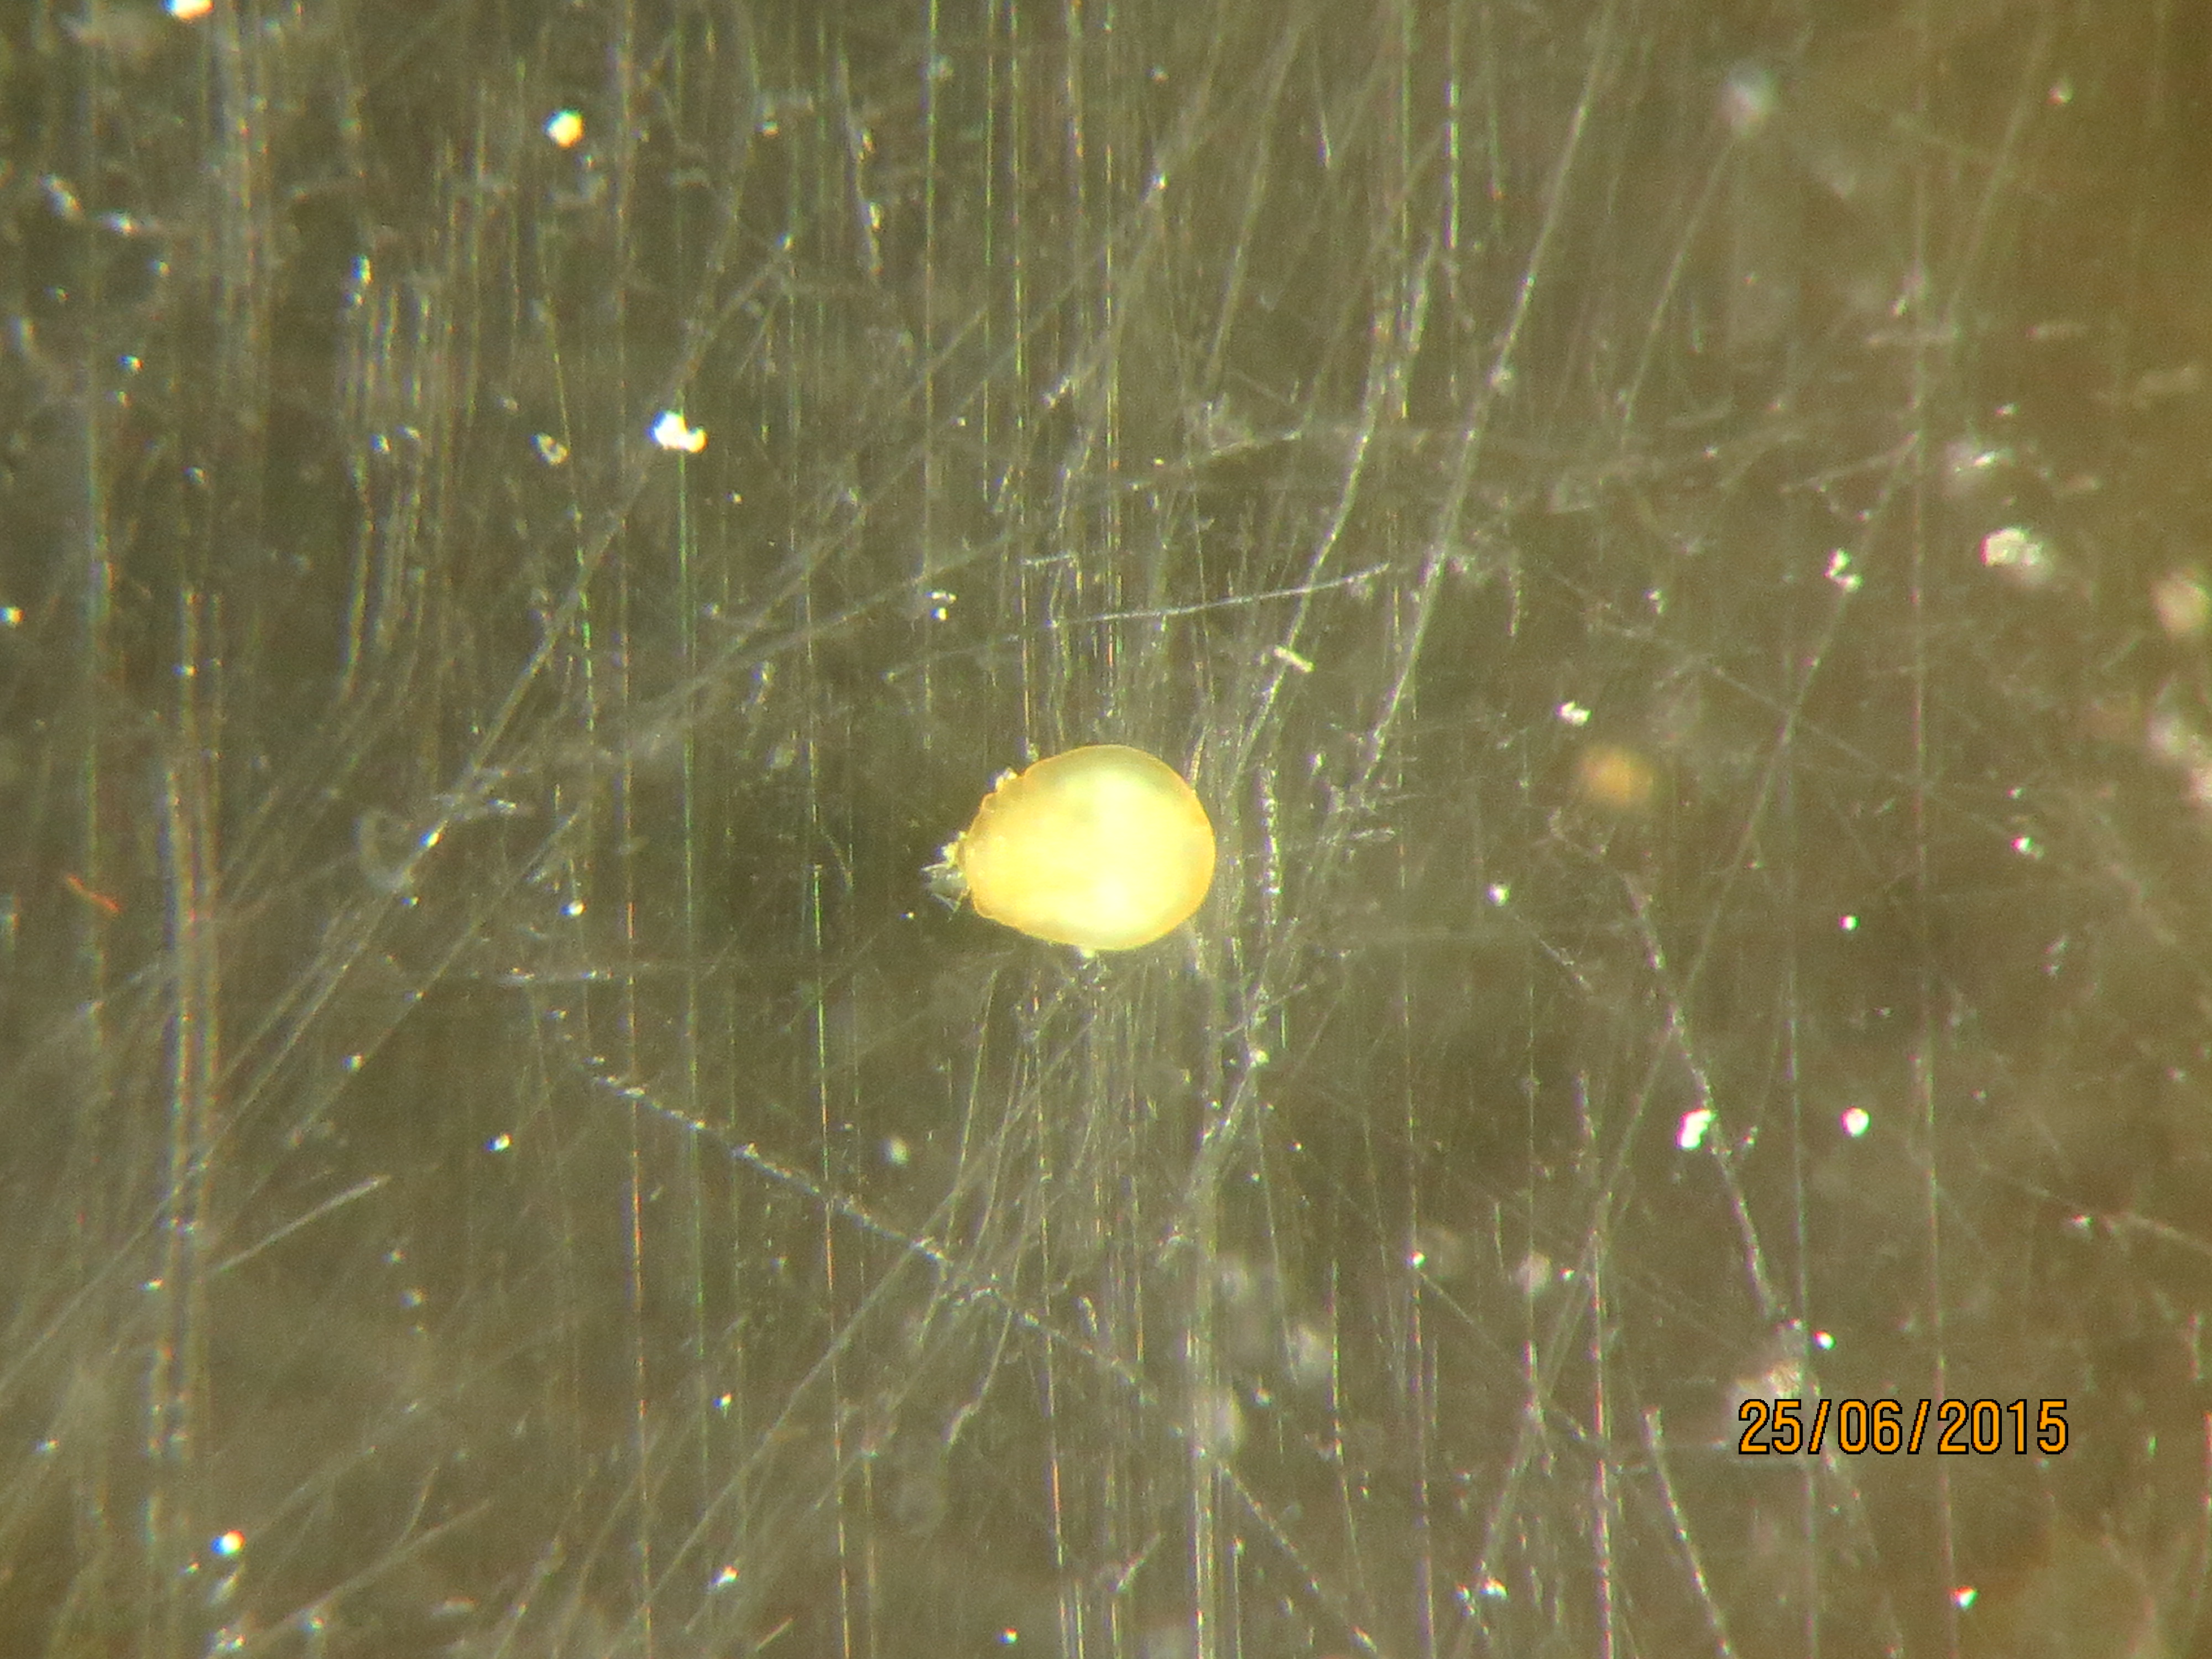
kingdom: Animalia
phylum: Cnidaria
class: Anthozoa
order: Scleractinia
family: Montastraeidae
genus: Montastraea
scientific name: Montastraea cavernosa
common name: Great star coral
